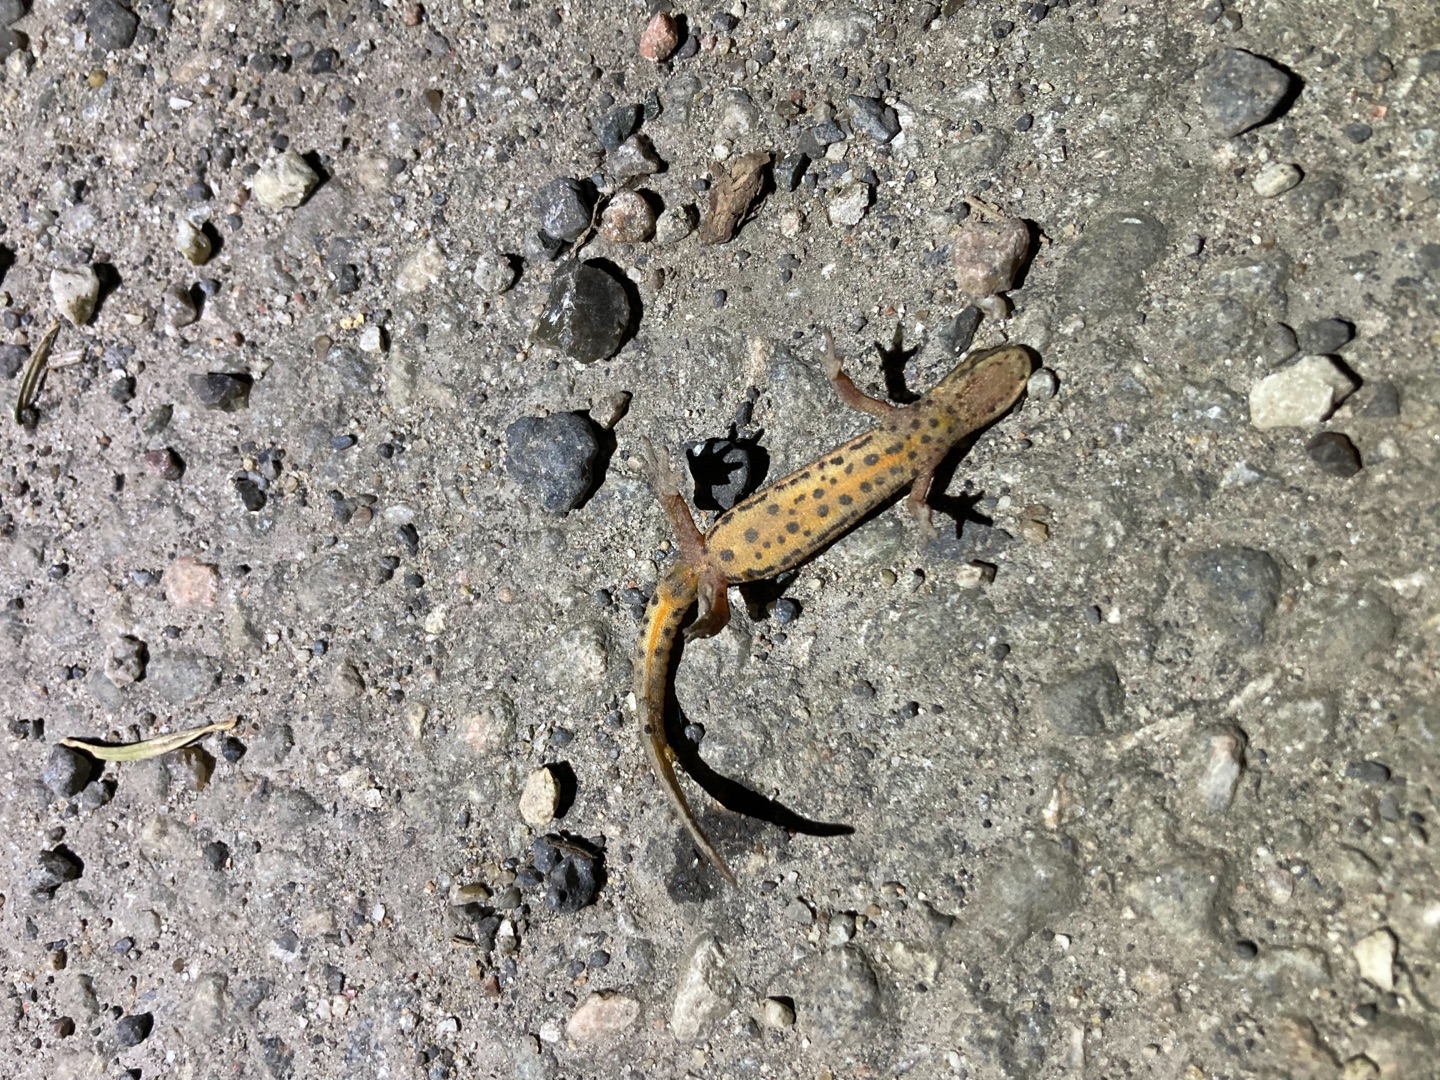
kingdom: Animalia
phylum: Chordata
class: Amphibia
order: Caudata
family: Salamandridae
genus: Lissotriton
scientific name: Lissotriton vulgaris
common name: Lille vandsalamander
